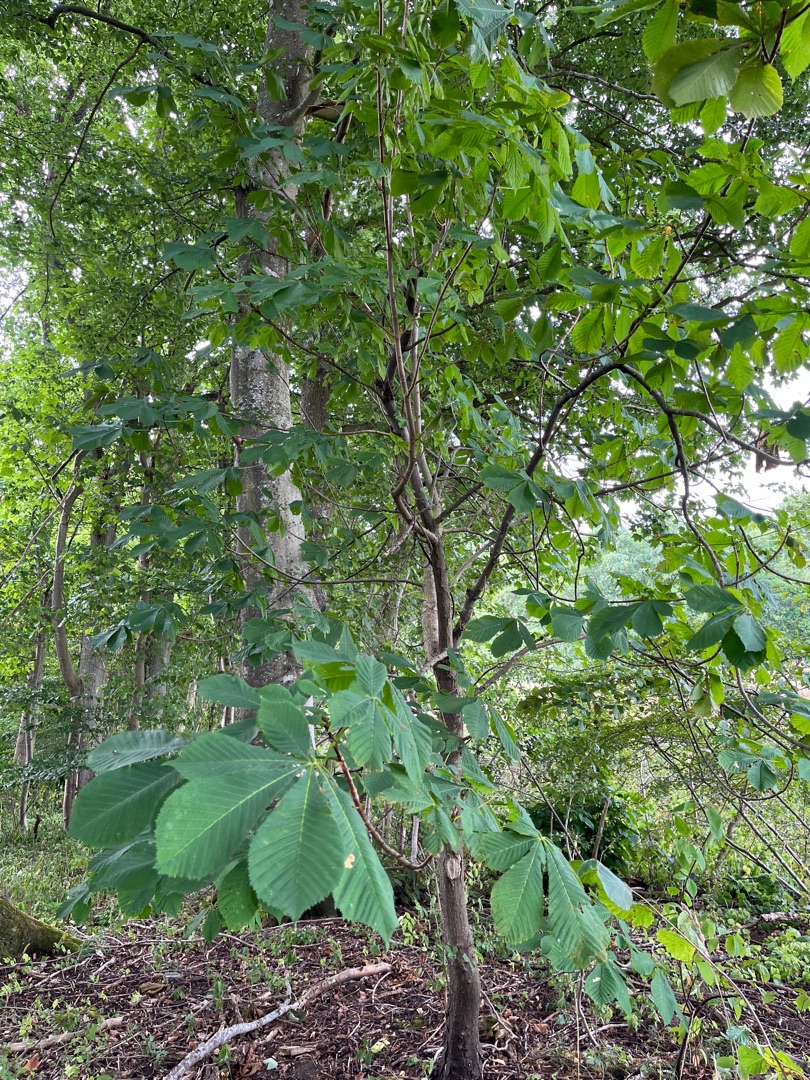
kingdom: Plantae
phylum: Tracheophyta
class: Magnoliopsida
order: Sapindales
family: Sapindaceae
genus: Aesculus
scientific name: Aesculus hippocastanum
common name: Hestekastanie
